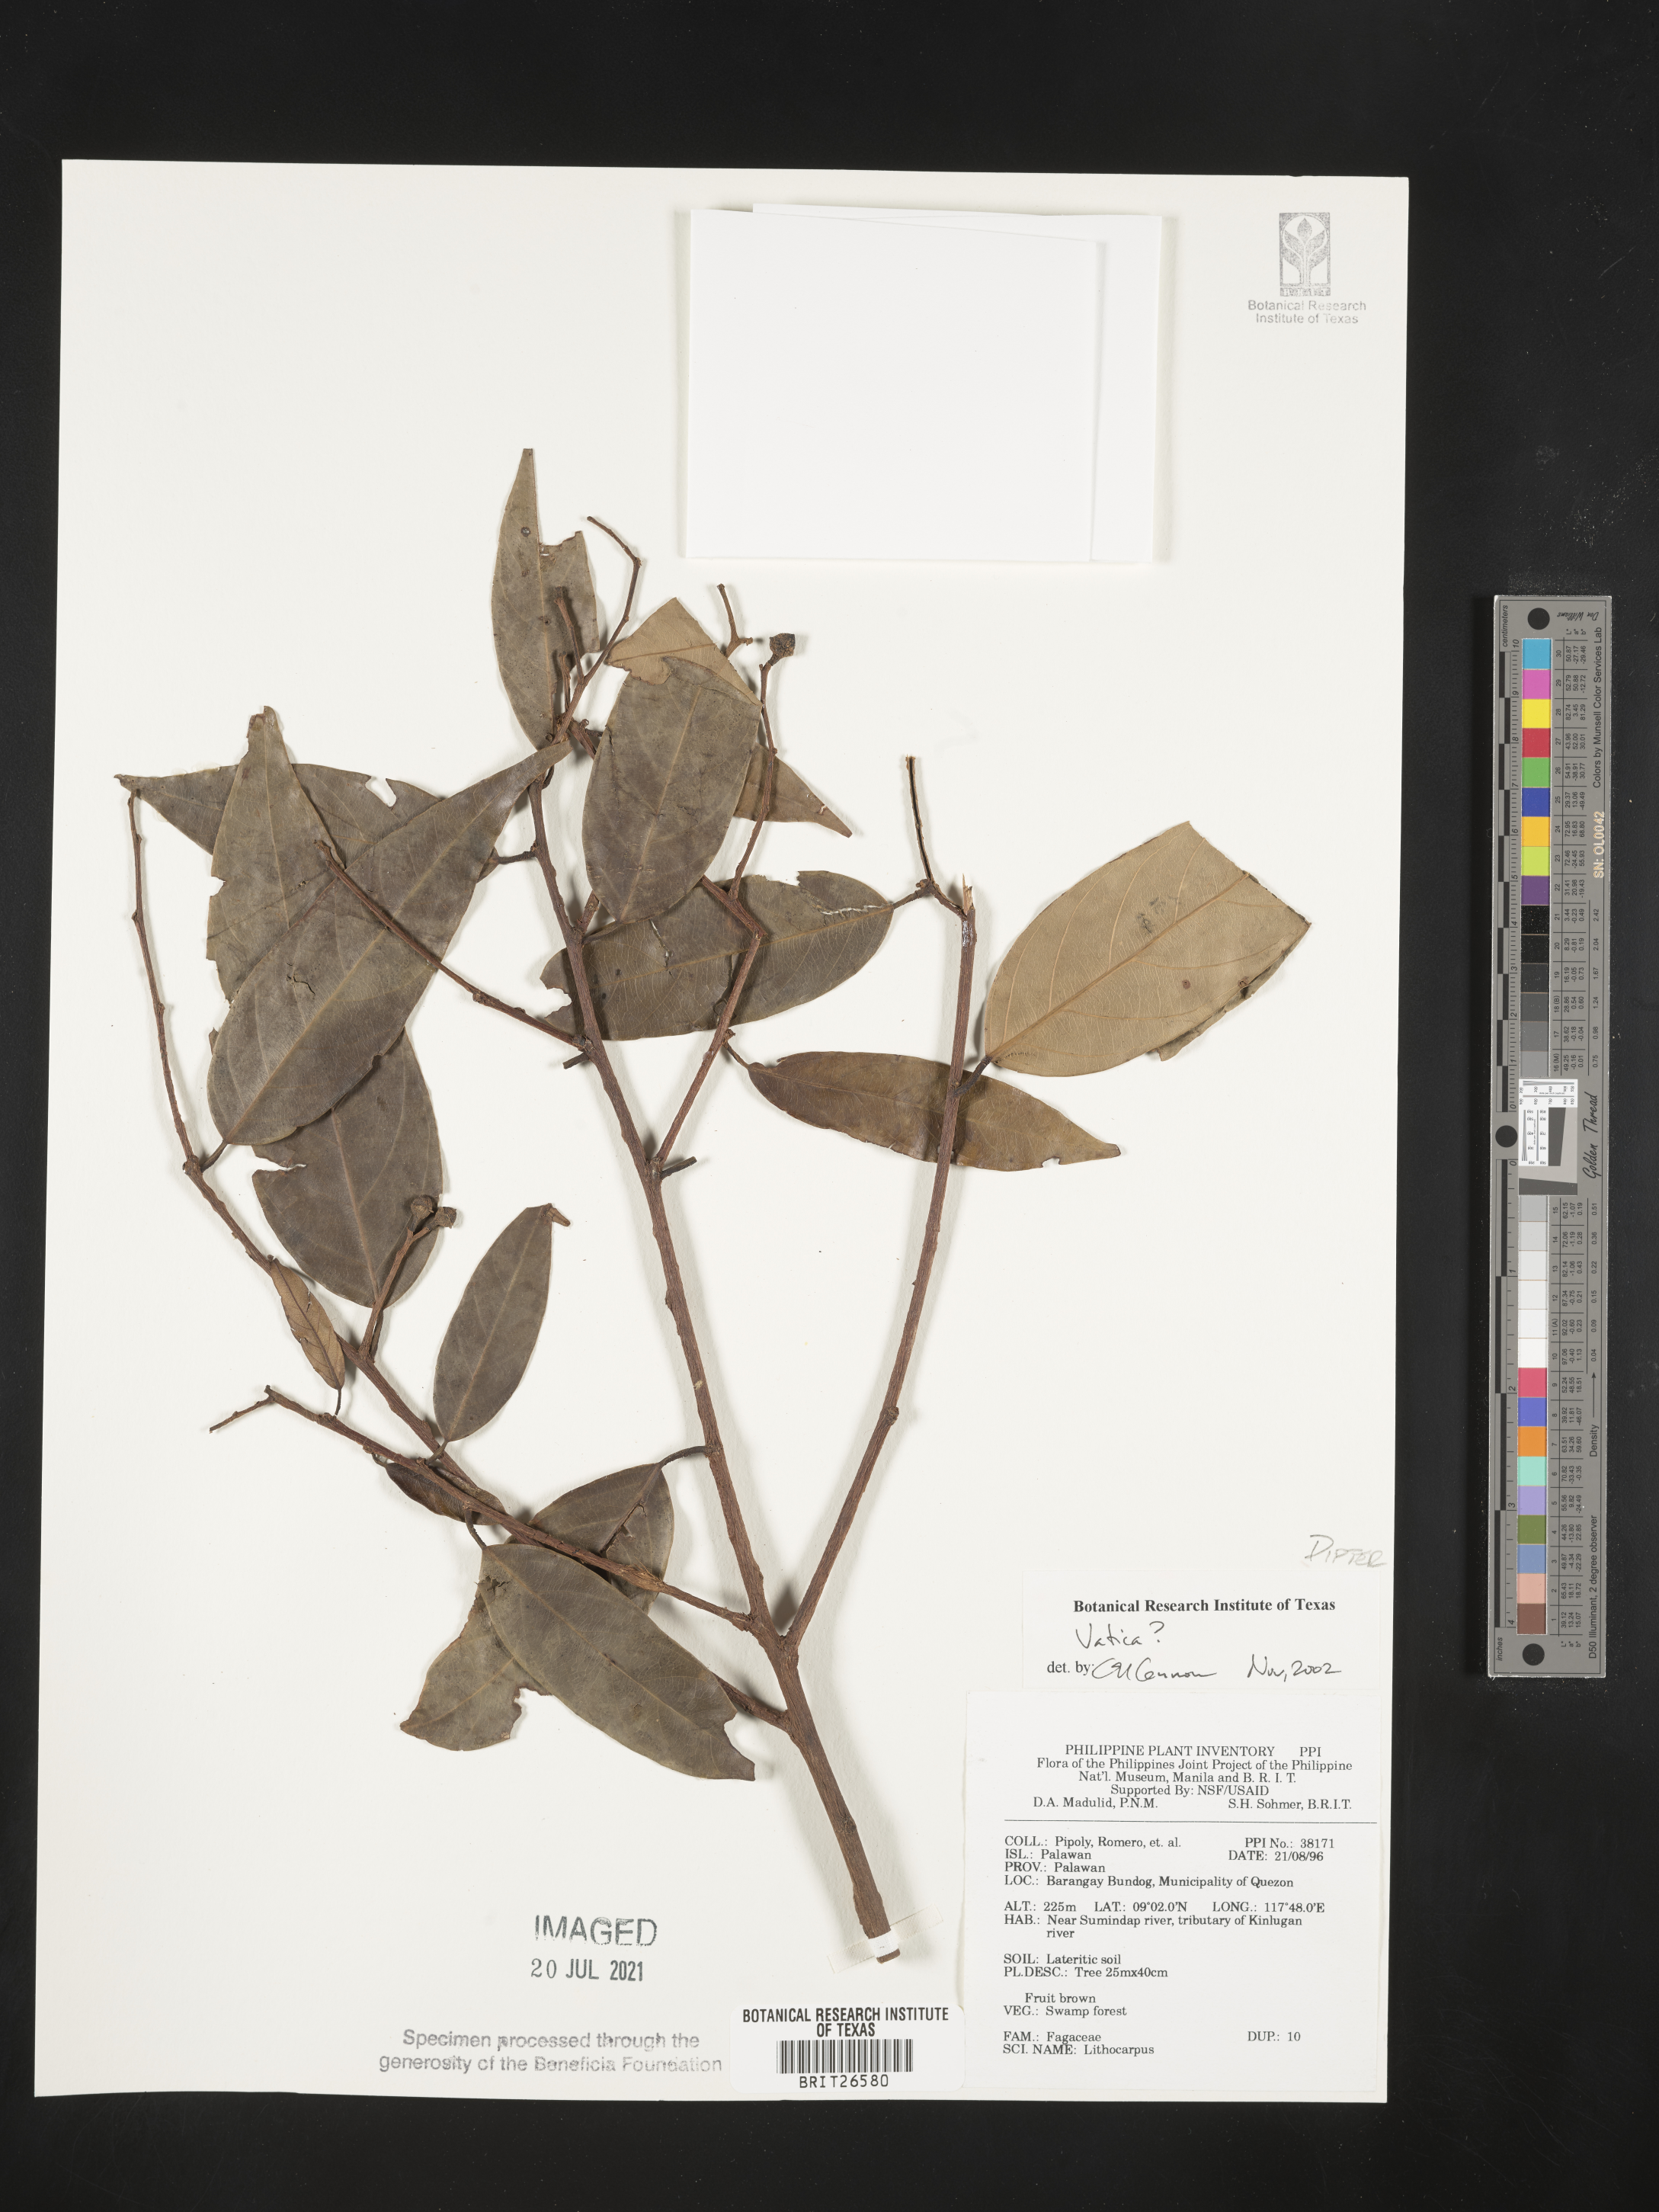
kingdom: Plantae
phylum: Tracheophyta
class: Magnoliopsida
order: Malvales
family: Dipterocarpaceae
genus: Vatica
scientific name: Vatica
